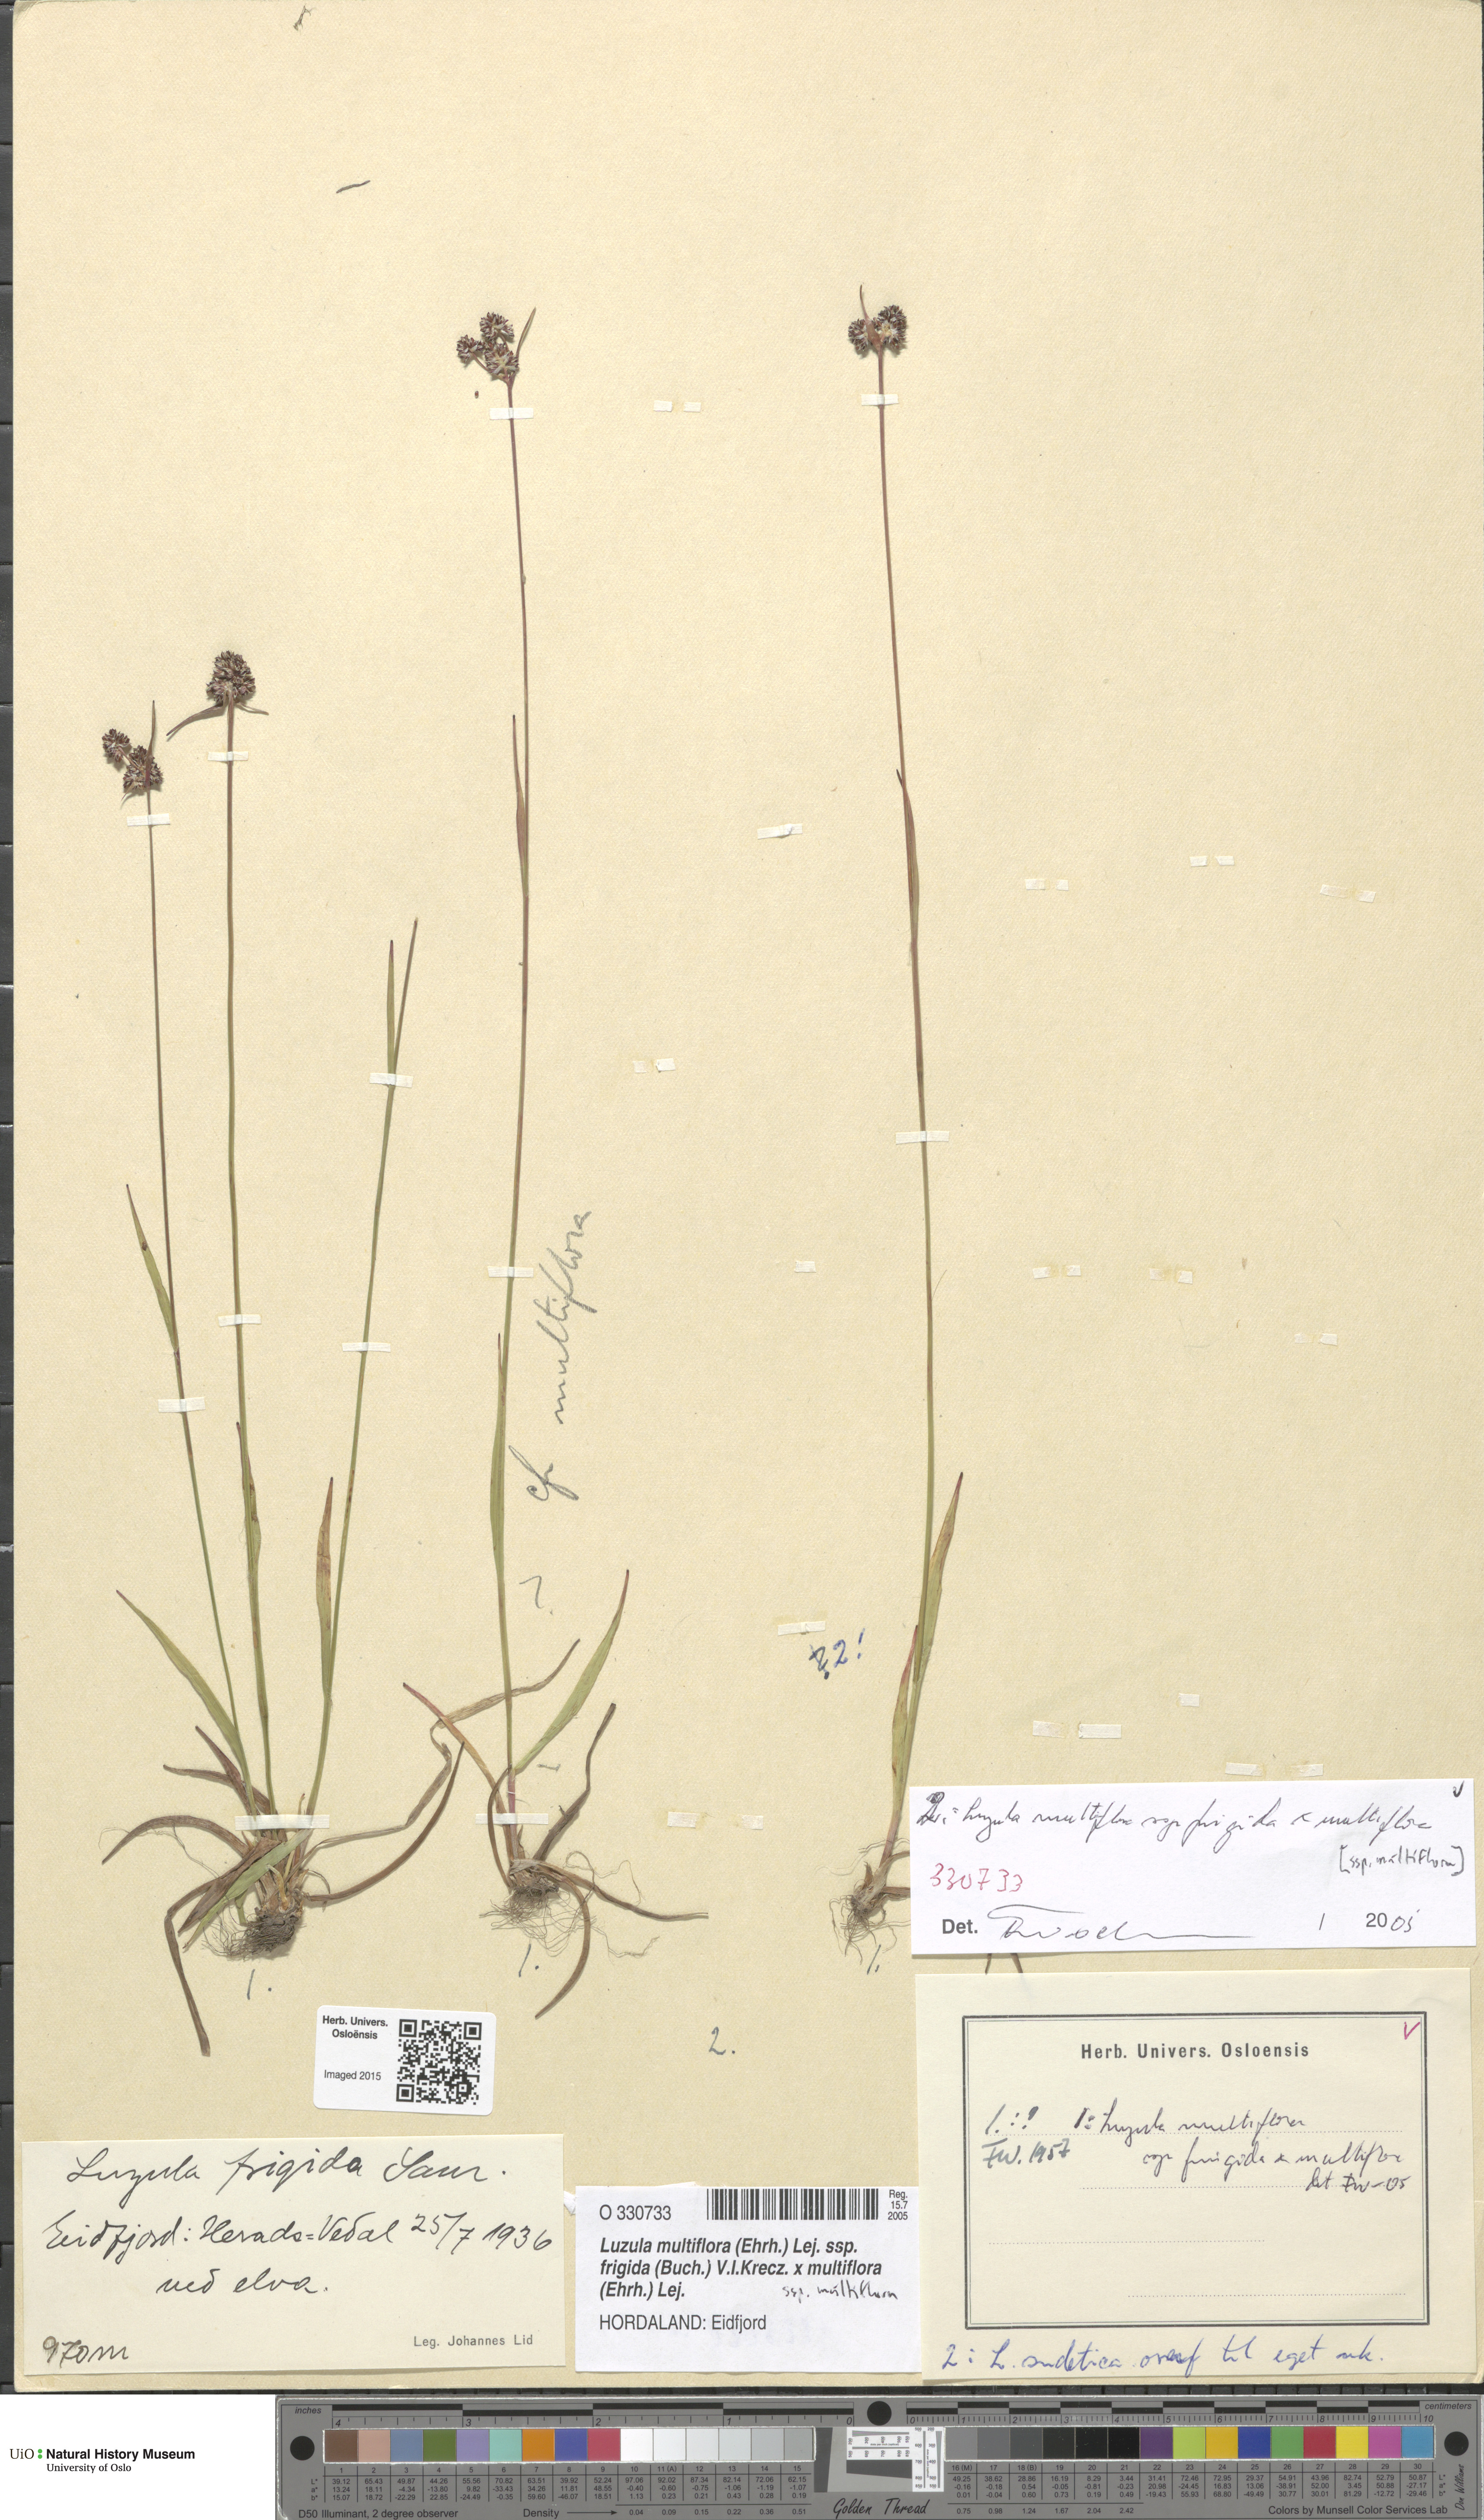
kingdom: Plantae
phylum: Tracheophyta
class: Liliopsida
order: Poales
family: Juncaceae
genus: Luzula
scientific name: Luzula
